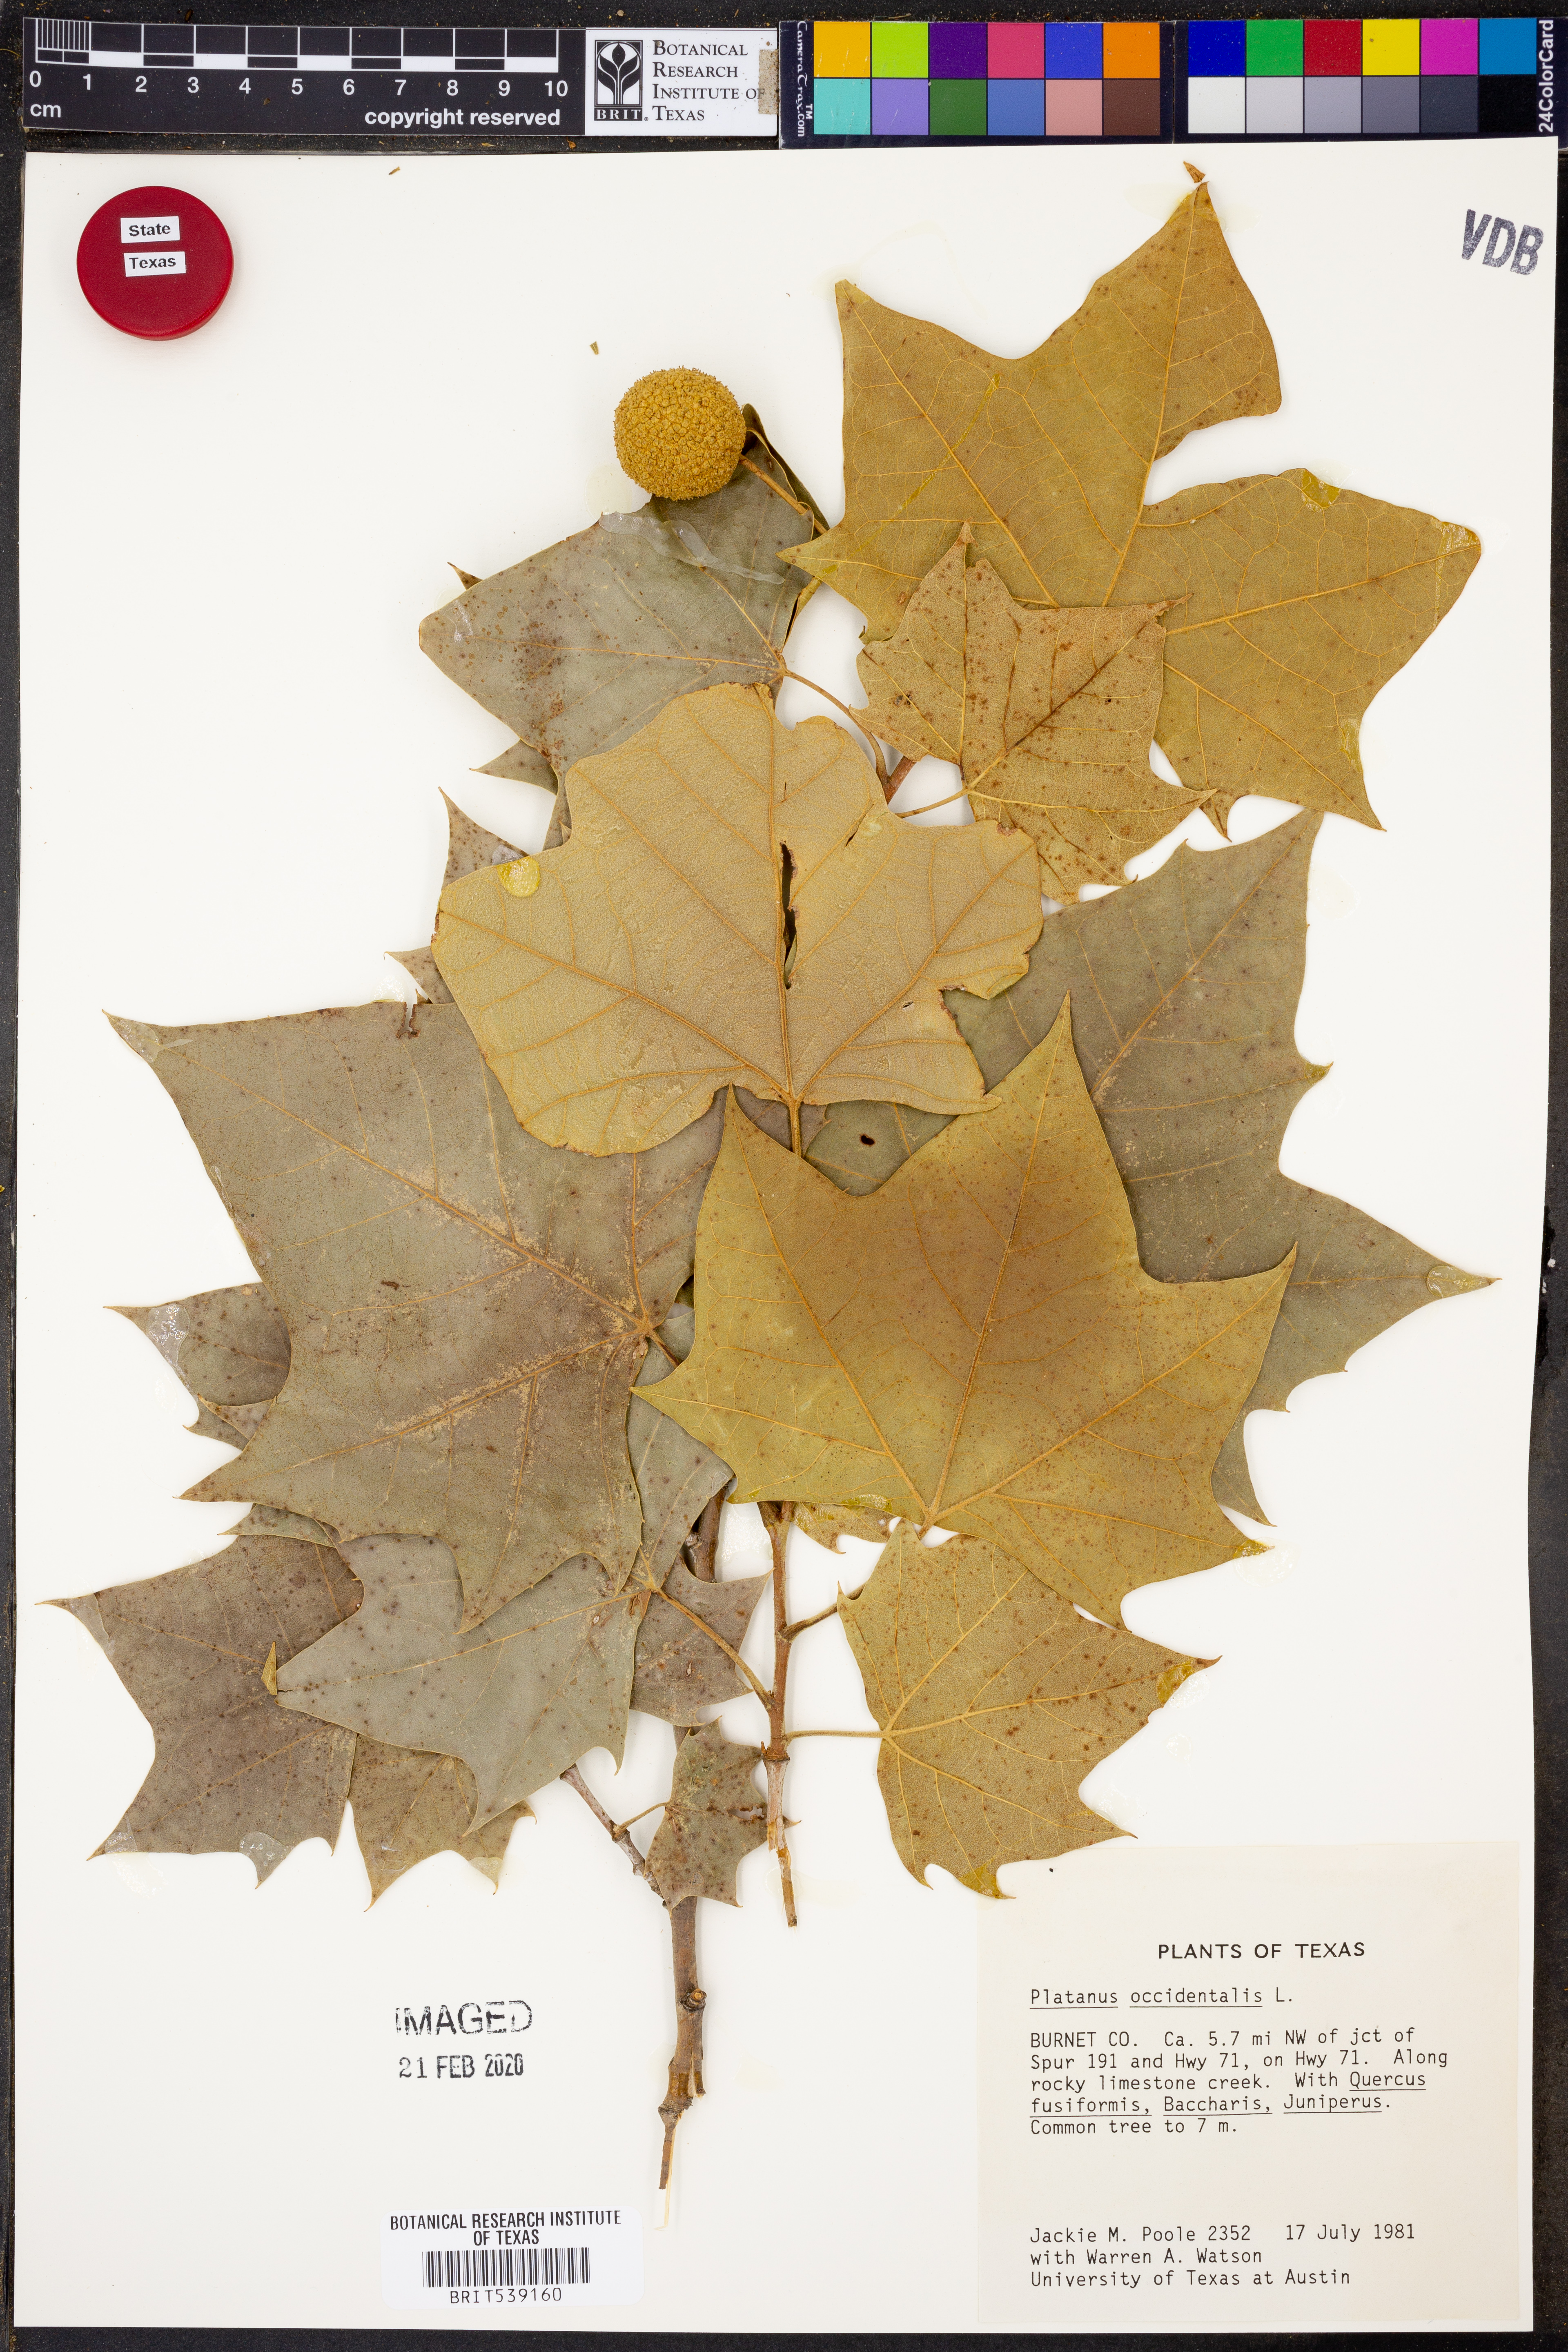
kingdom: Plantae
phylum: Tracheophyta
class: Magnoliopsida
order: Proteales
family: Platanaceae
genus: Platanus
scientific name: Platanus occidentalis
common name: American sycamore
